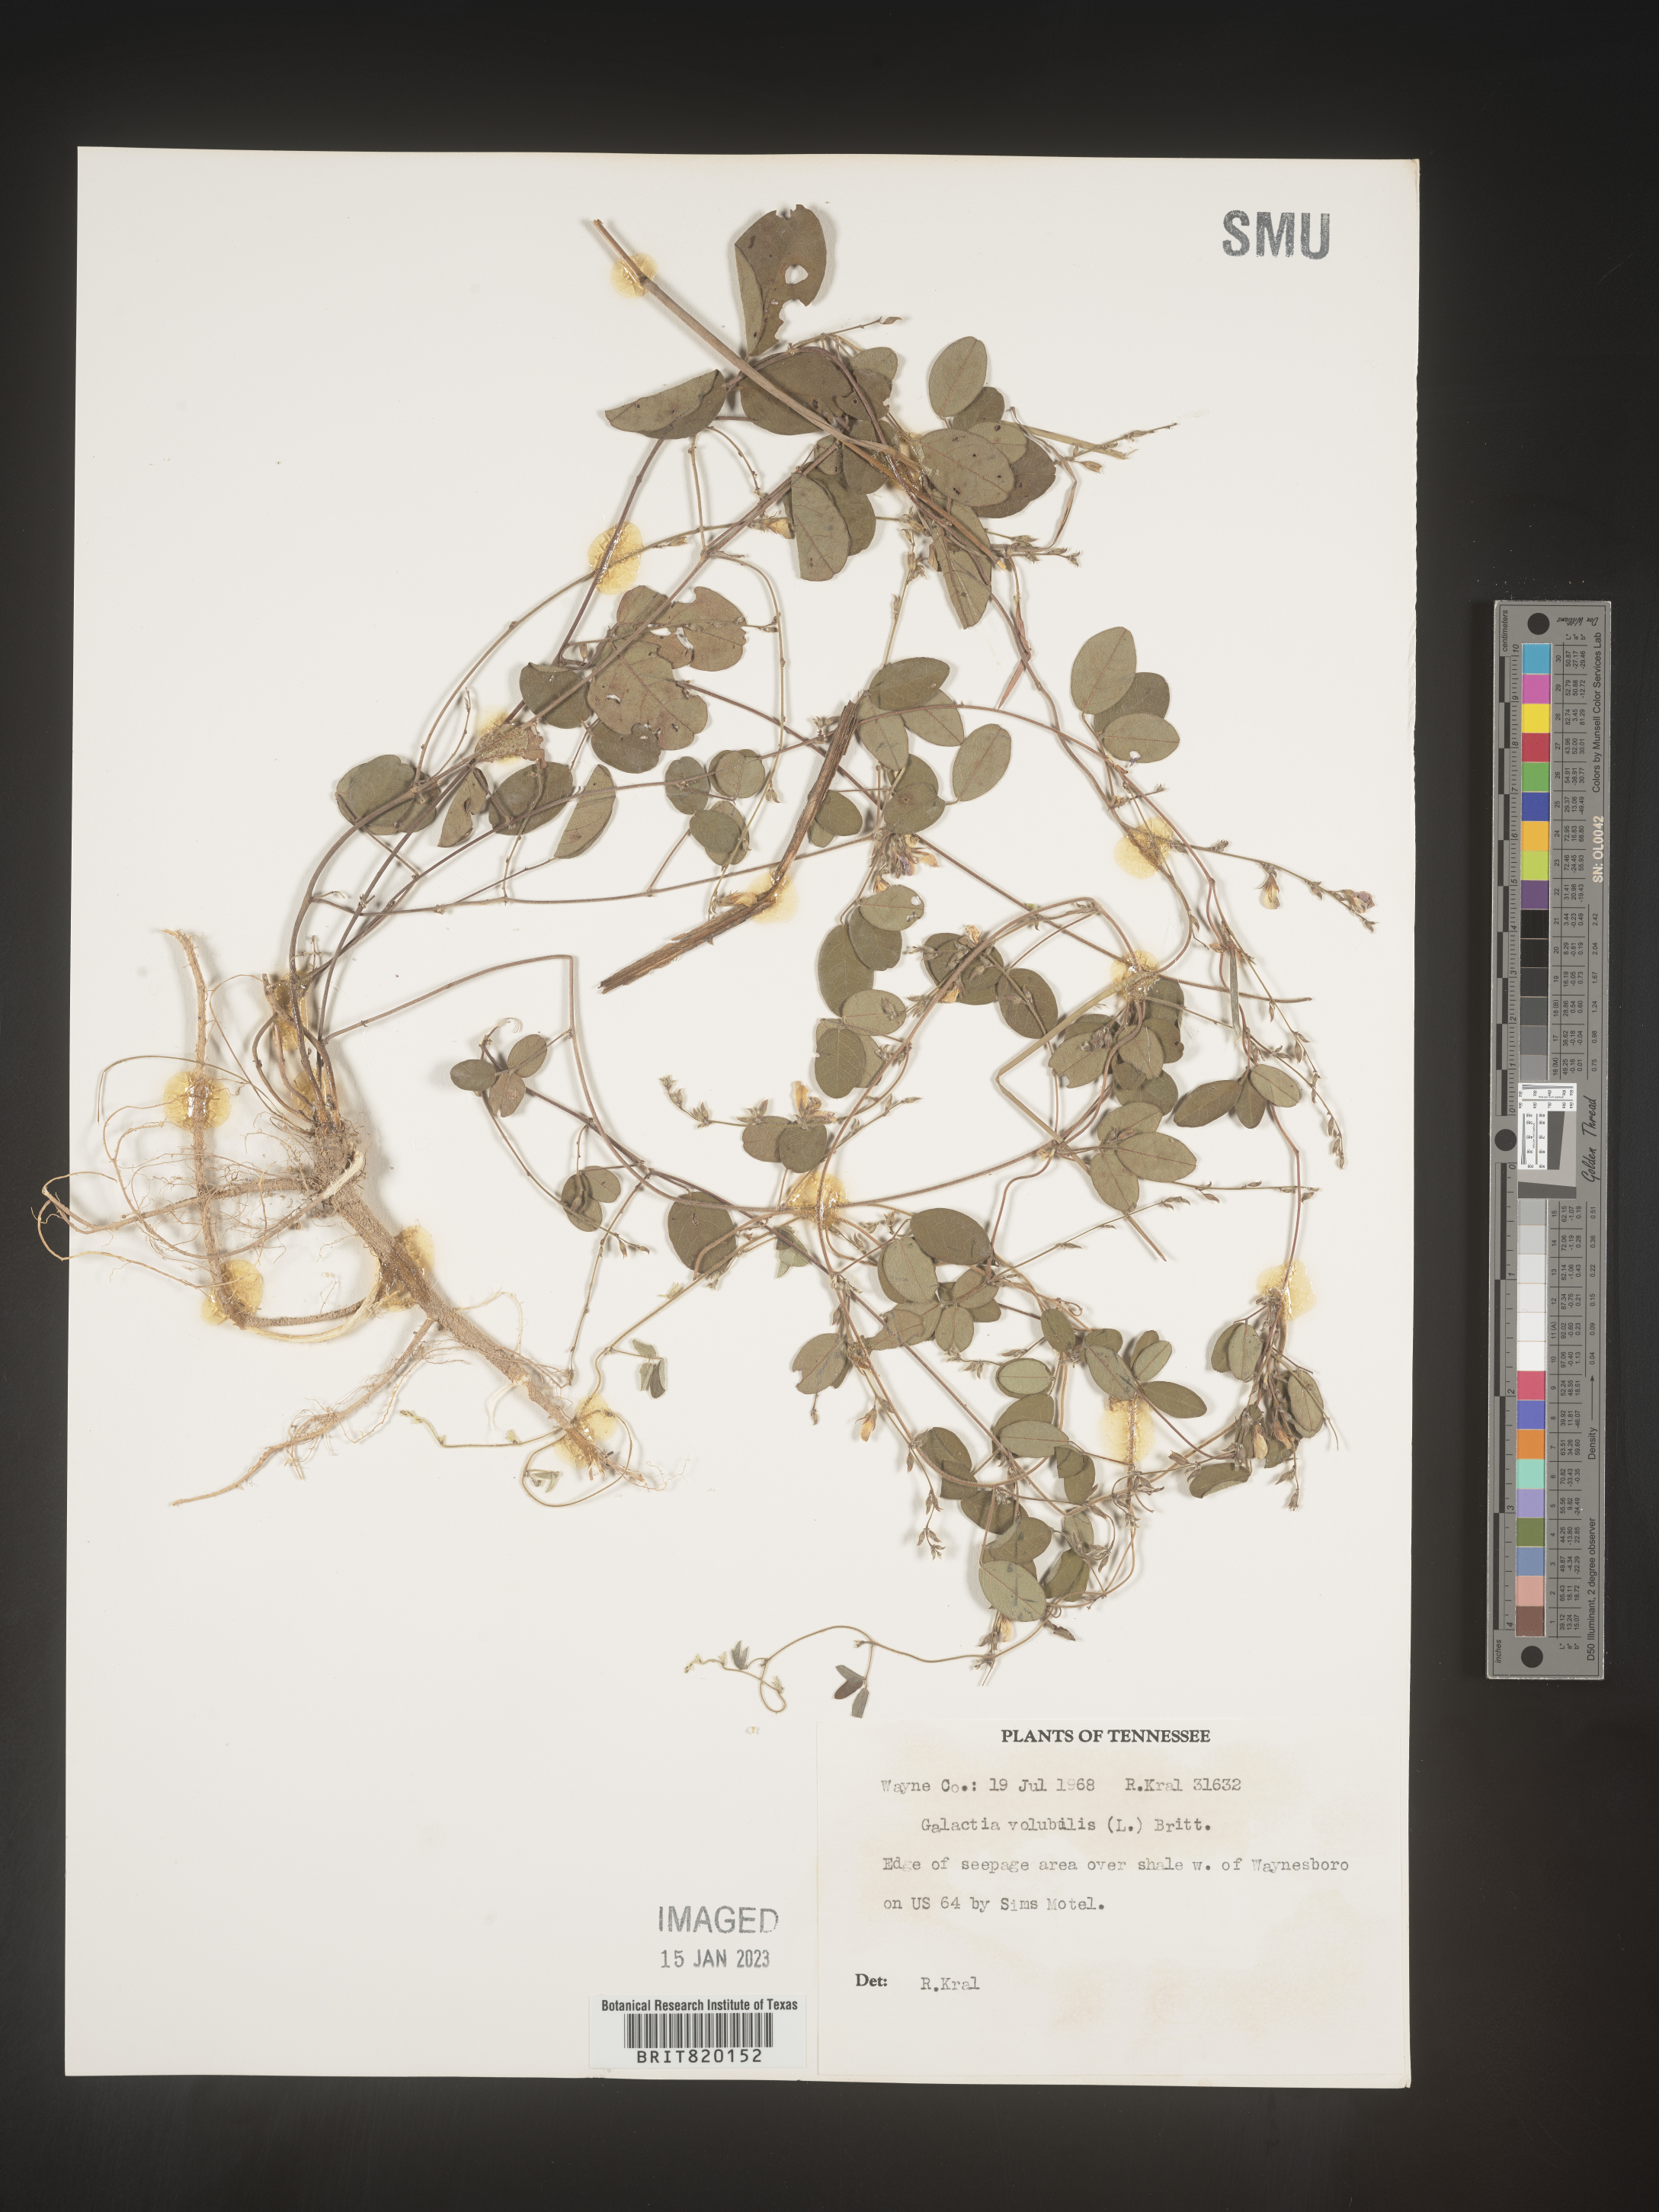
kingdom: Plantae
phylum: Tracheophyta
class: Magnoliopsida
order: Fabales
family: Fabaceae
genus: Galactia
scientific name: Galactia volubilis
